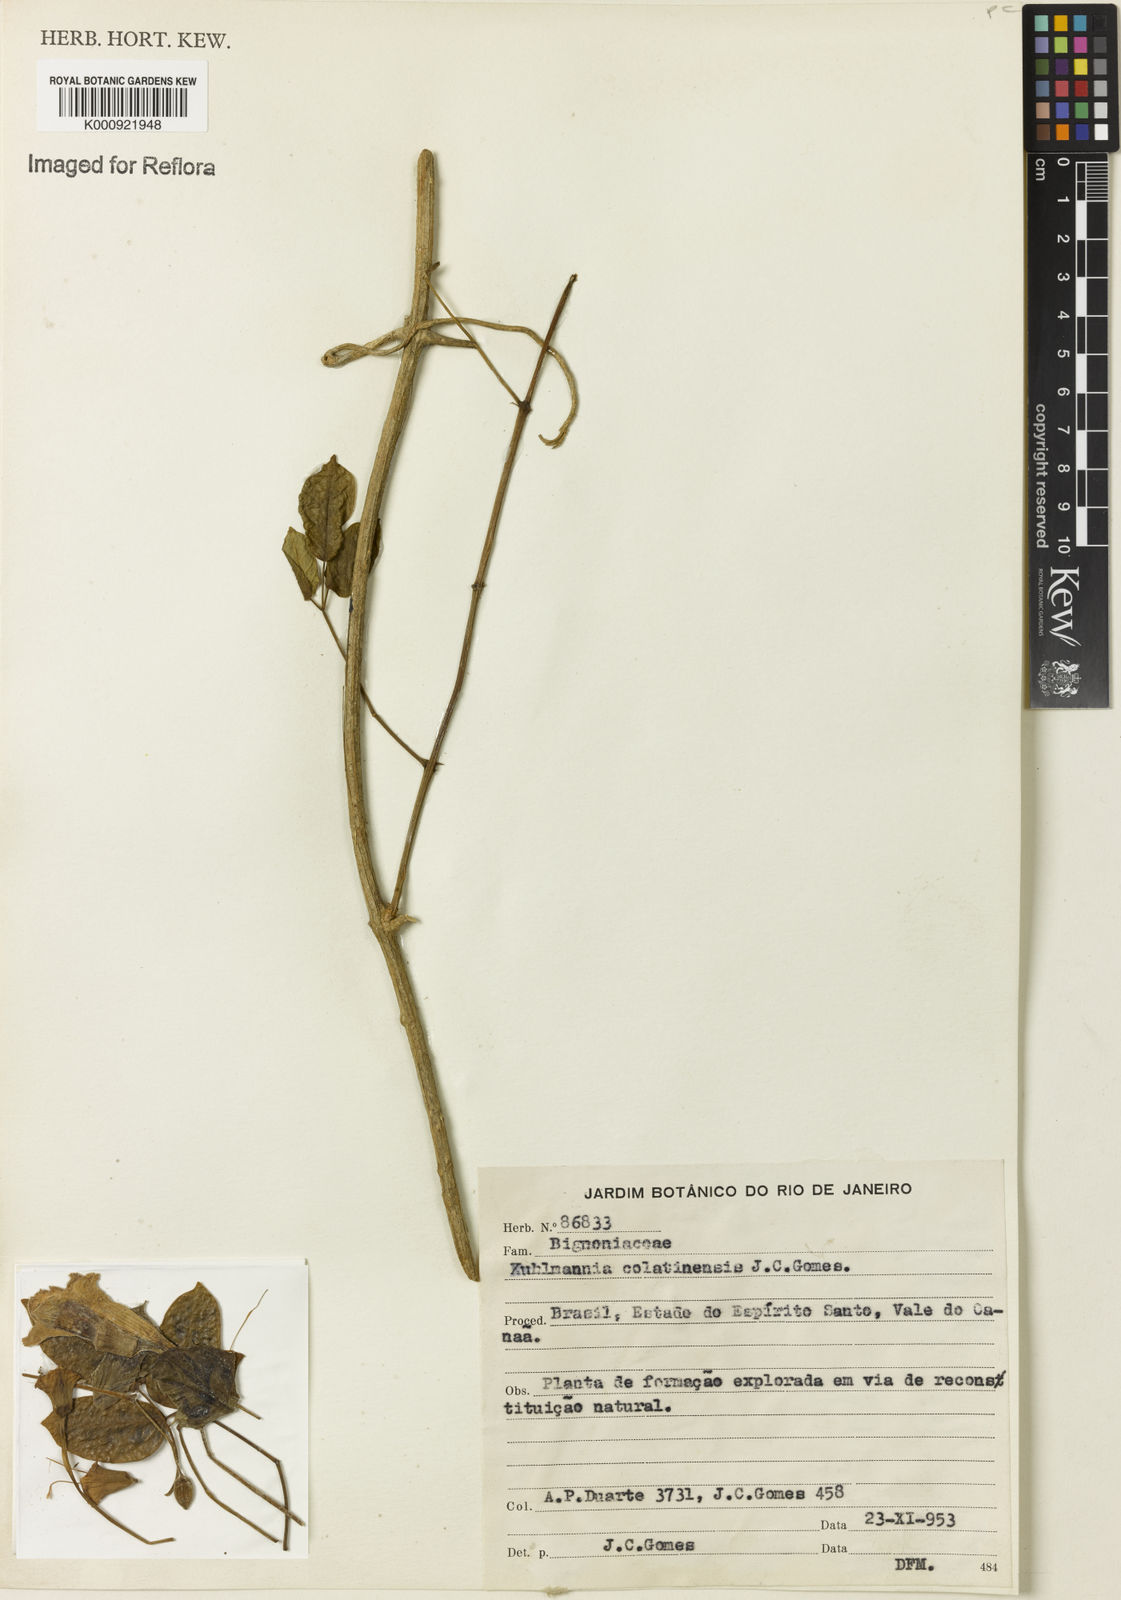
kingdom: Plantae
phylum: Tracheophyta
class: Magnoliopsida
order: Lamiales
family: Bignoniaceae
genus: Adenocalymma
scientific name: Adenocalymma albiflorum
